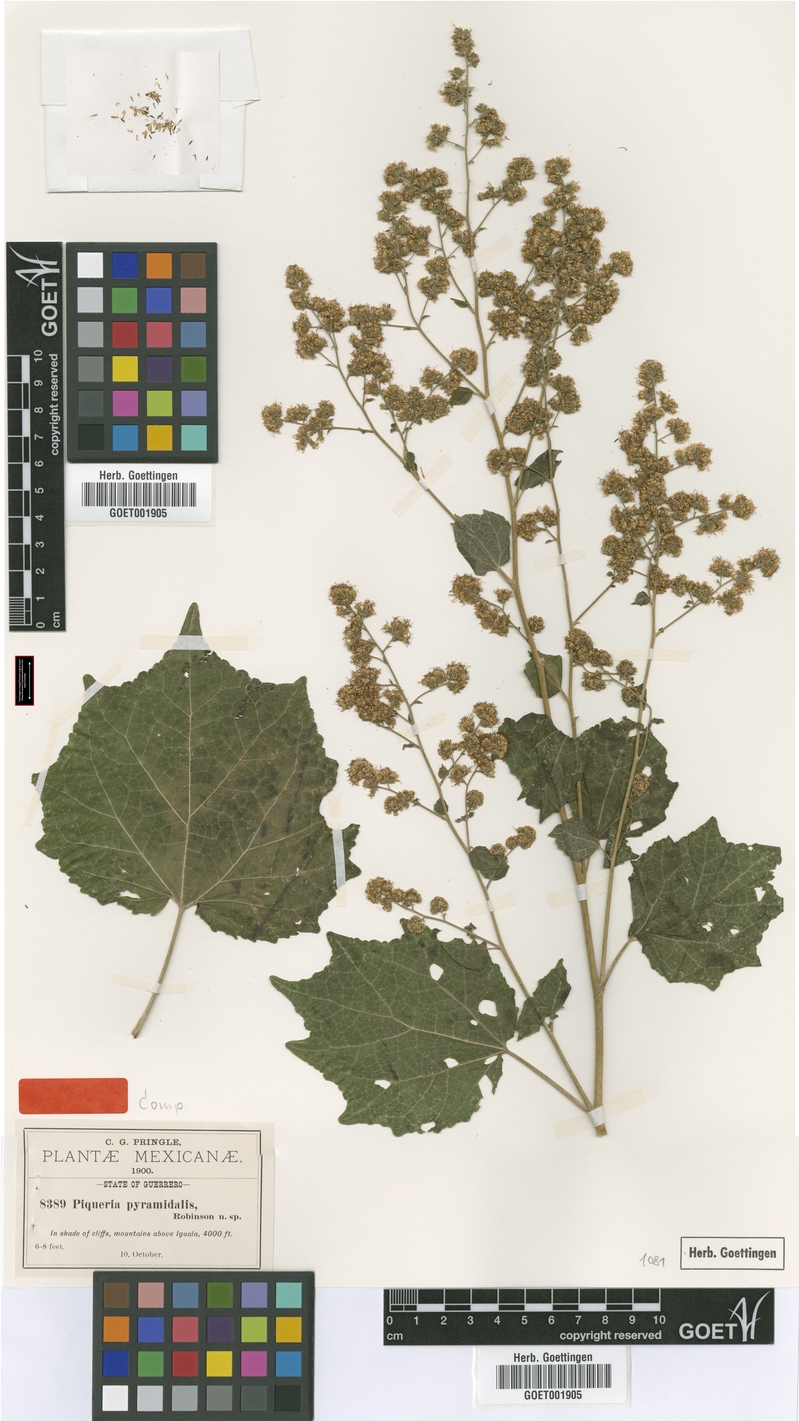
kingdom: Plantae
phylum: Tracheophyta
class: Magnoliopsida
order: Asterales
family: Asteraceae
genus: Decachaeta
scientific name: Decachaeta pyramidalis
